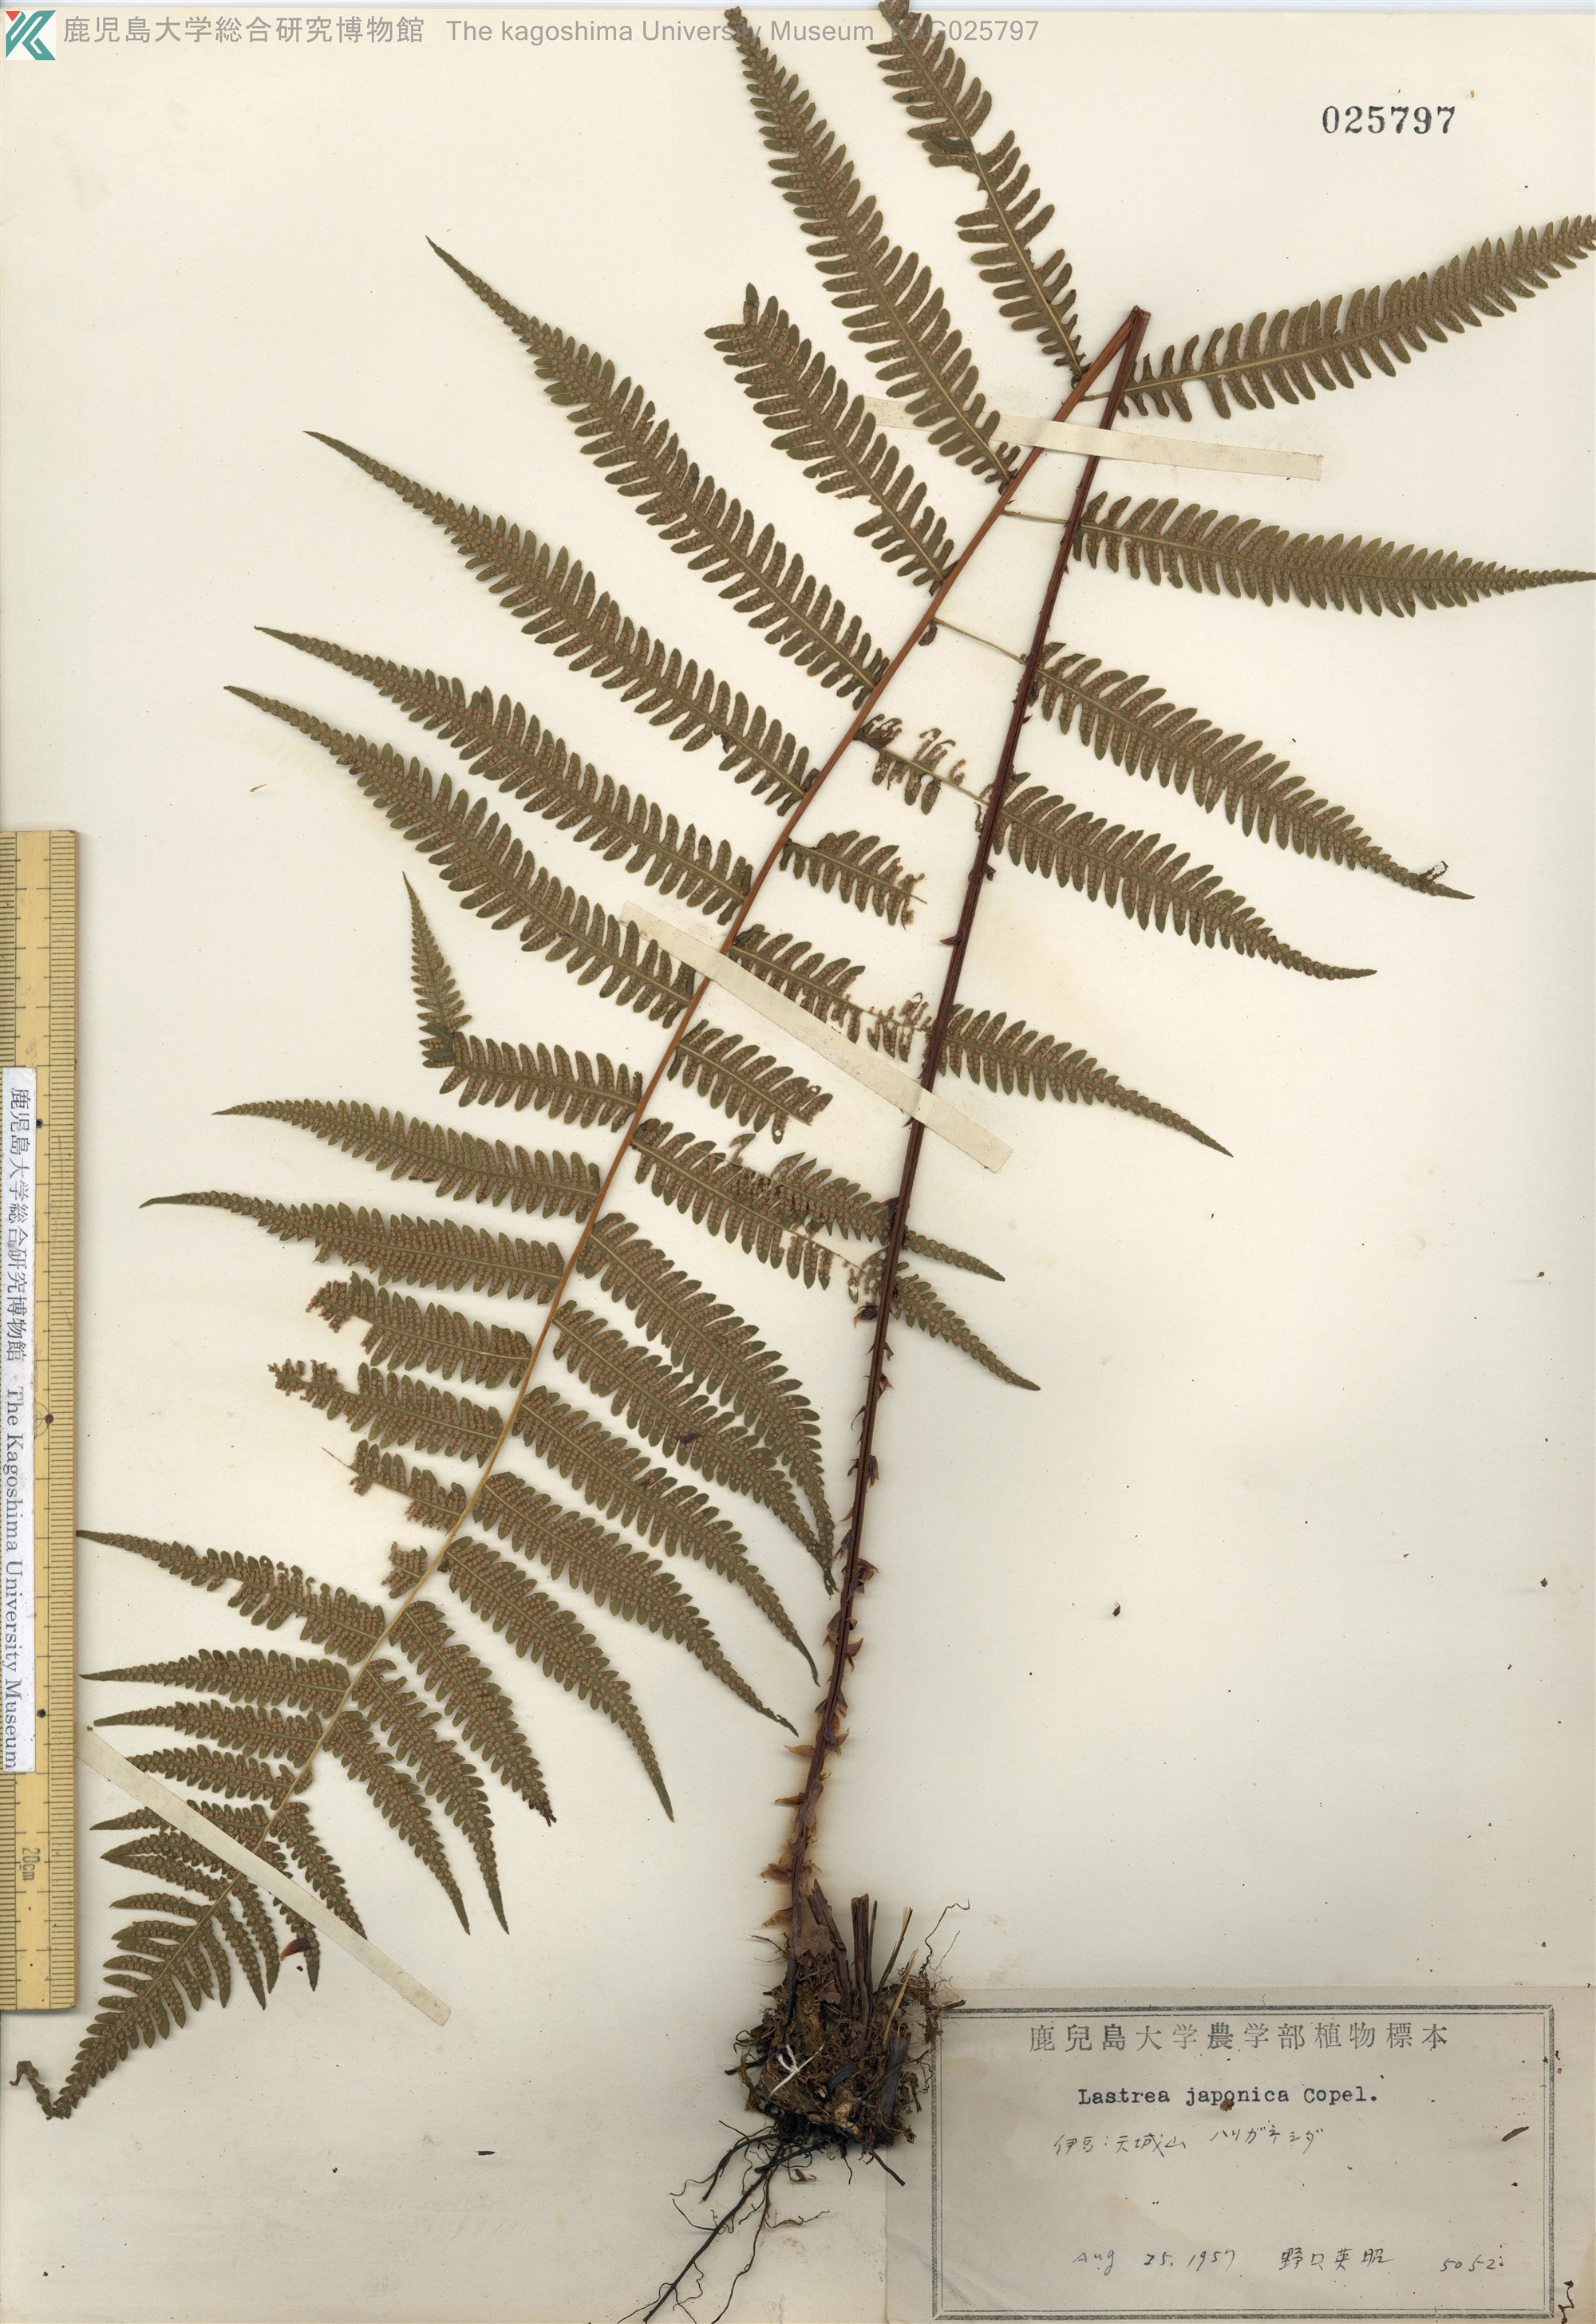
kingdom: Plantae
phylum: Tracheophyta
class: Polypodiopsida
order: Polypodiales
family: Thelypteridaceae
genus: Coryphopteris
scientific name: Coryphopteris japonica
